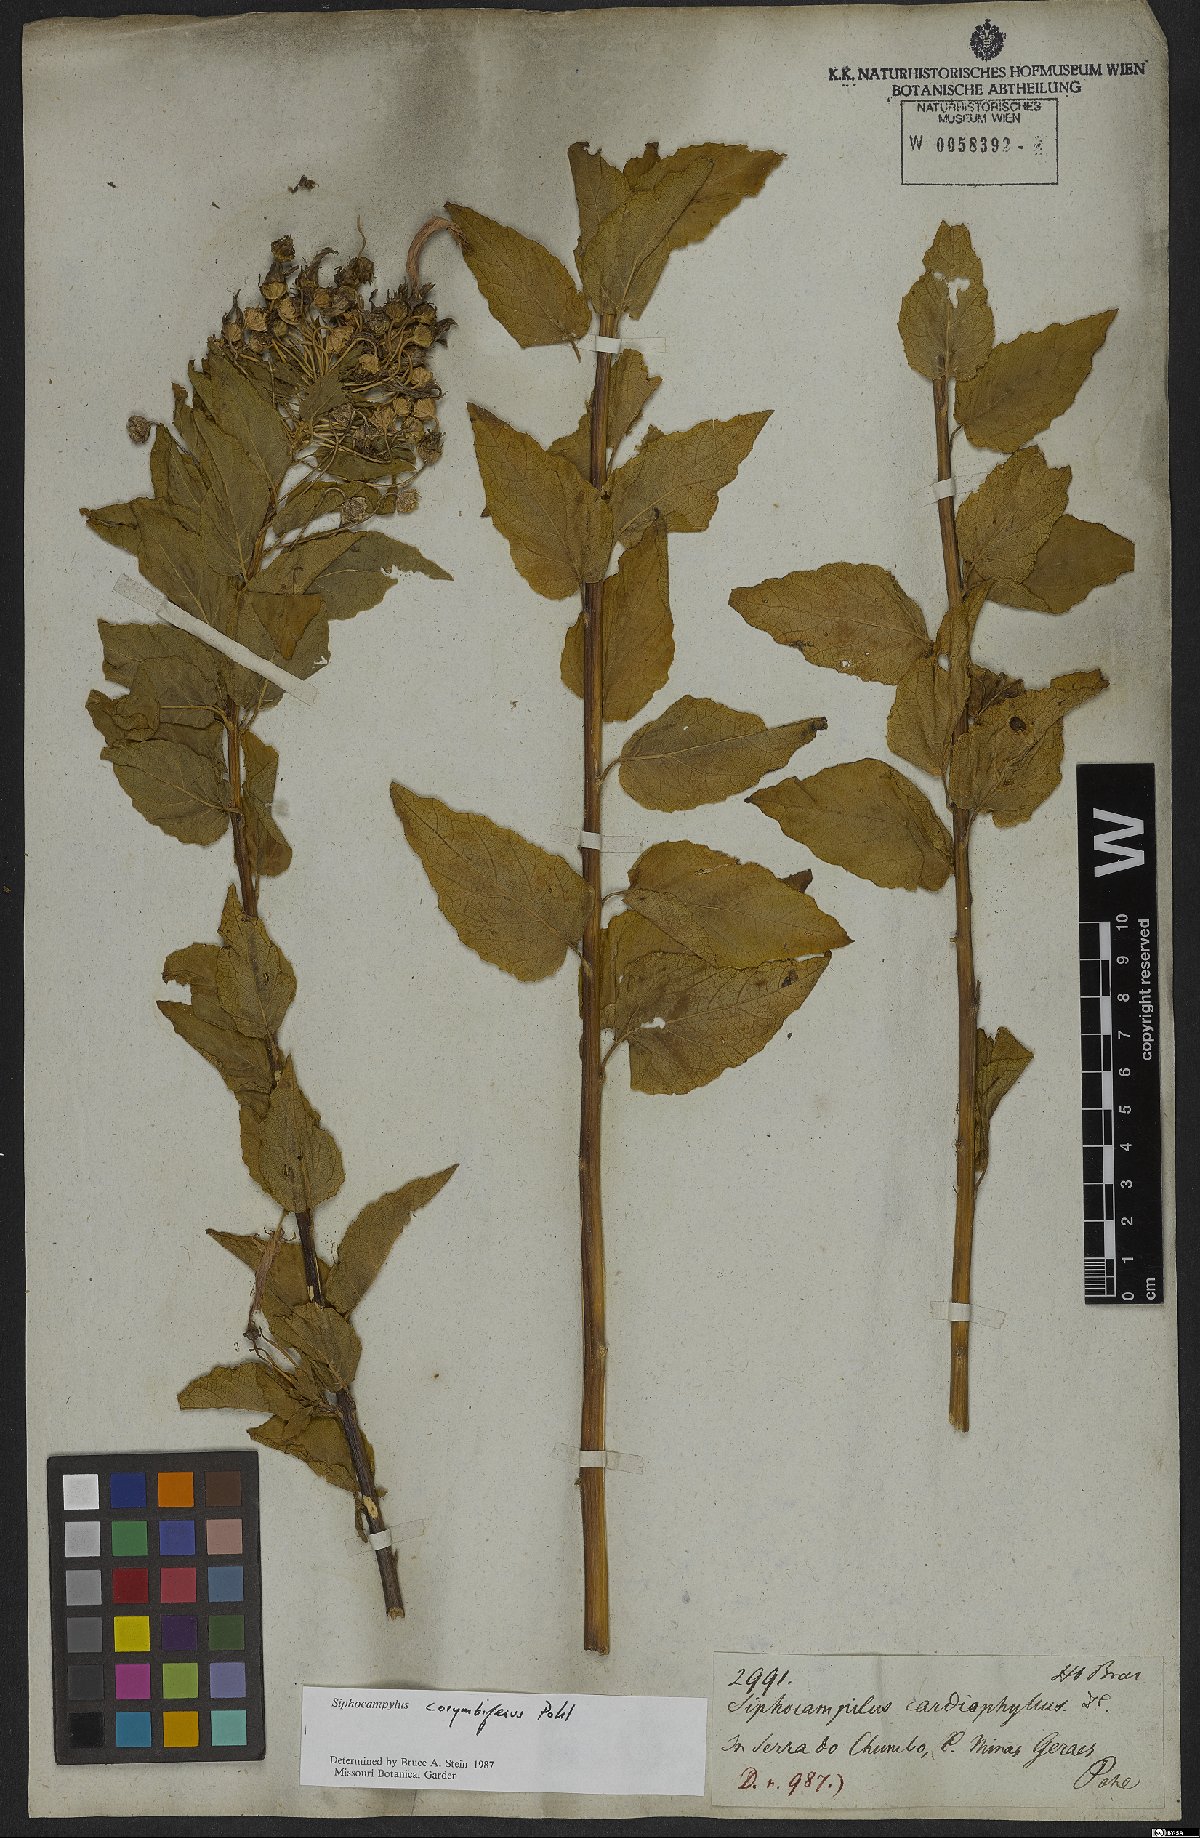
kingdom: Plantae
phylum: Tracheophyta
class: Magnoliopsida
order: Asterales
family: Campanulaceae
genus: Siphocampylus
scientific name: Siphocampylus corymbiferus
